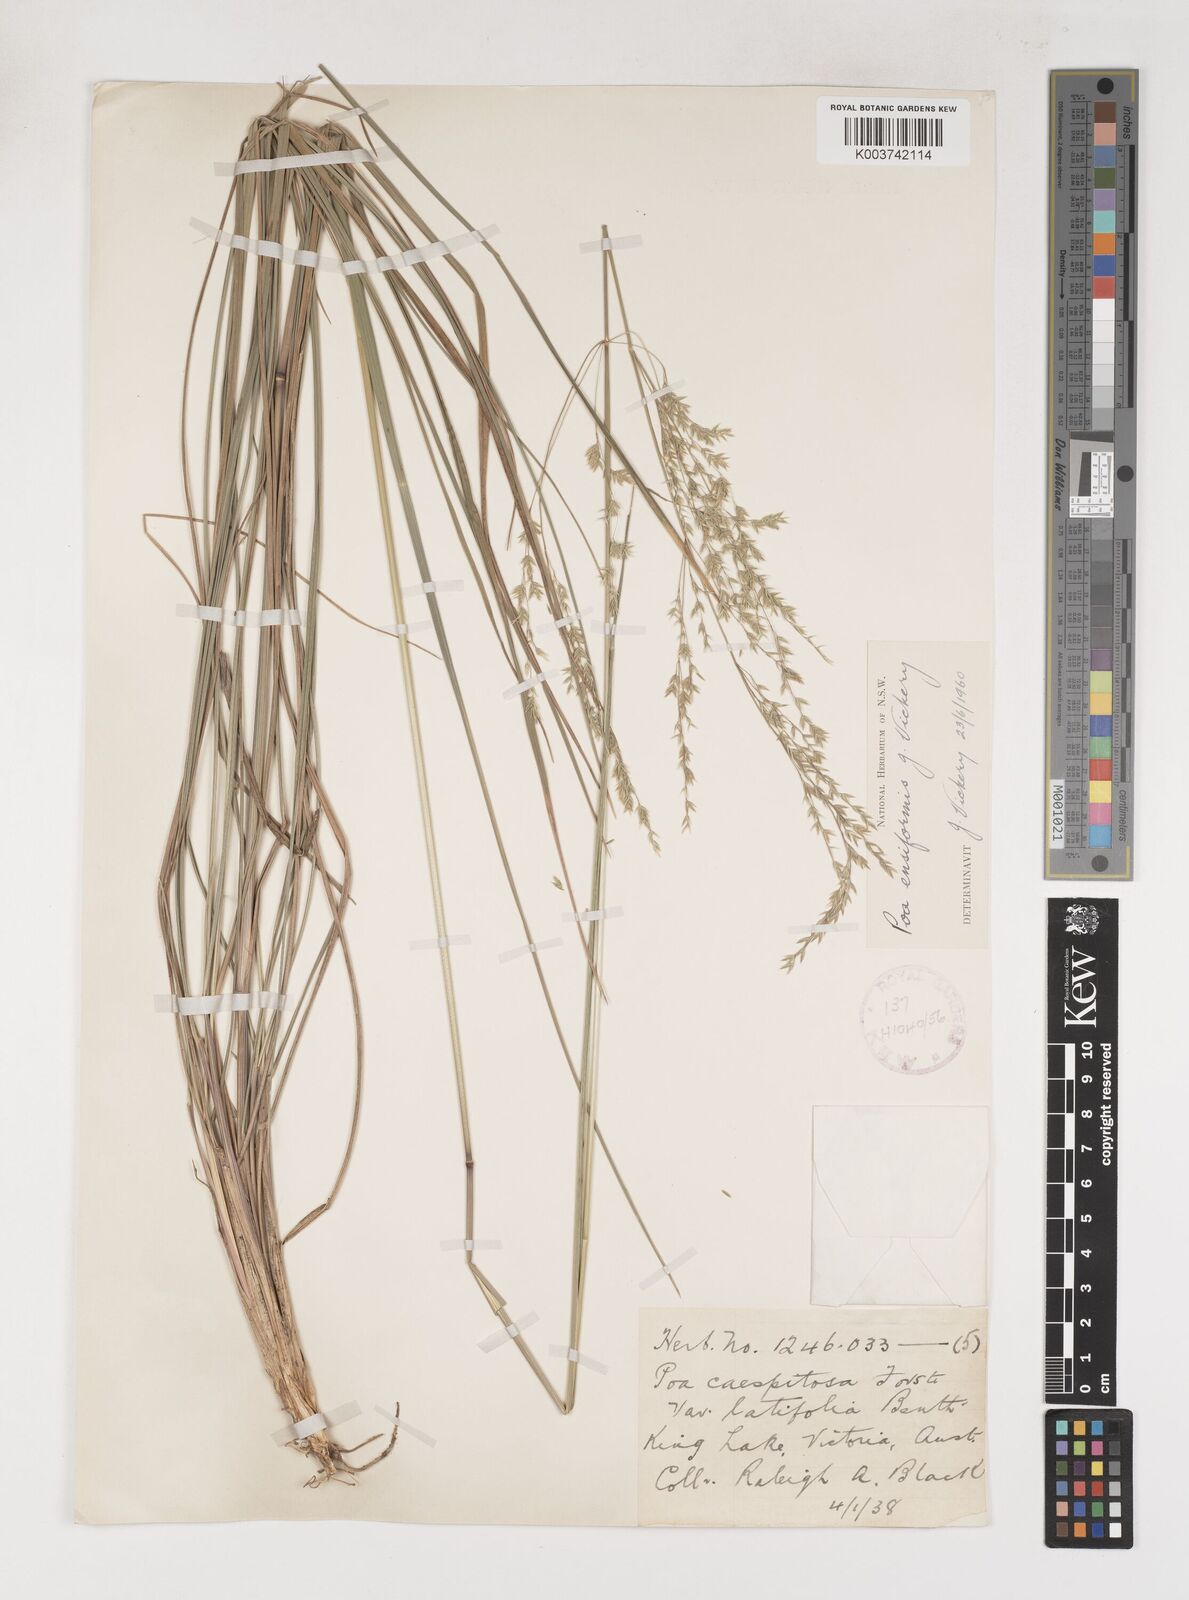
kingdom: Plantae
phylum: Tracheophyta
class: Liliopsida
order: Poales
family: Poaceae
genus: Poa
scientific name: Poa ensiformis
